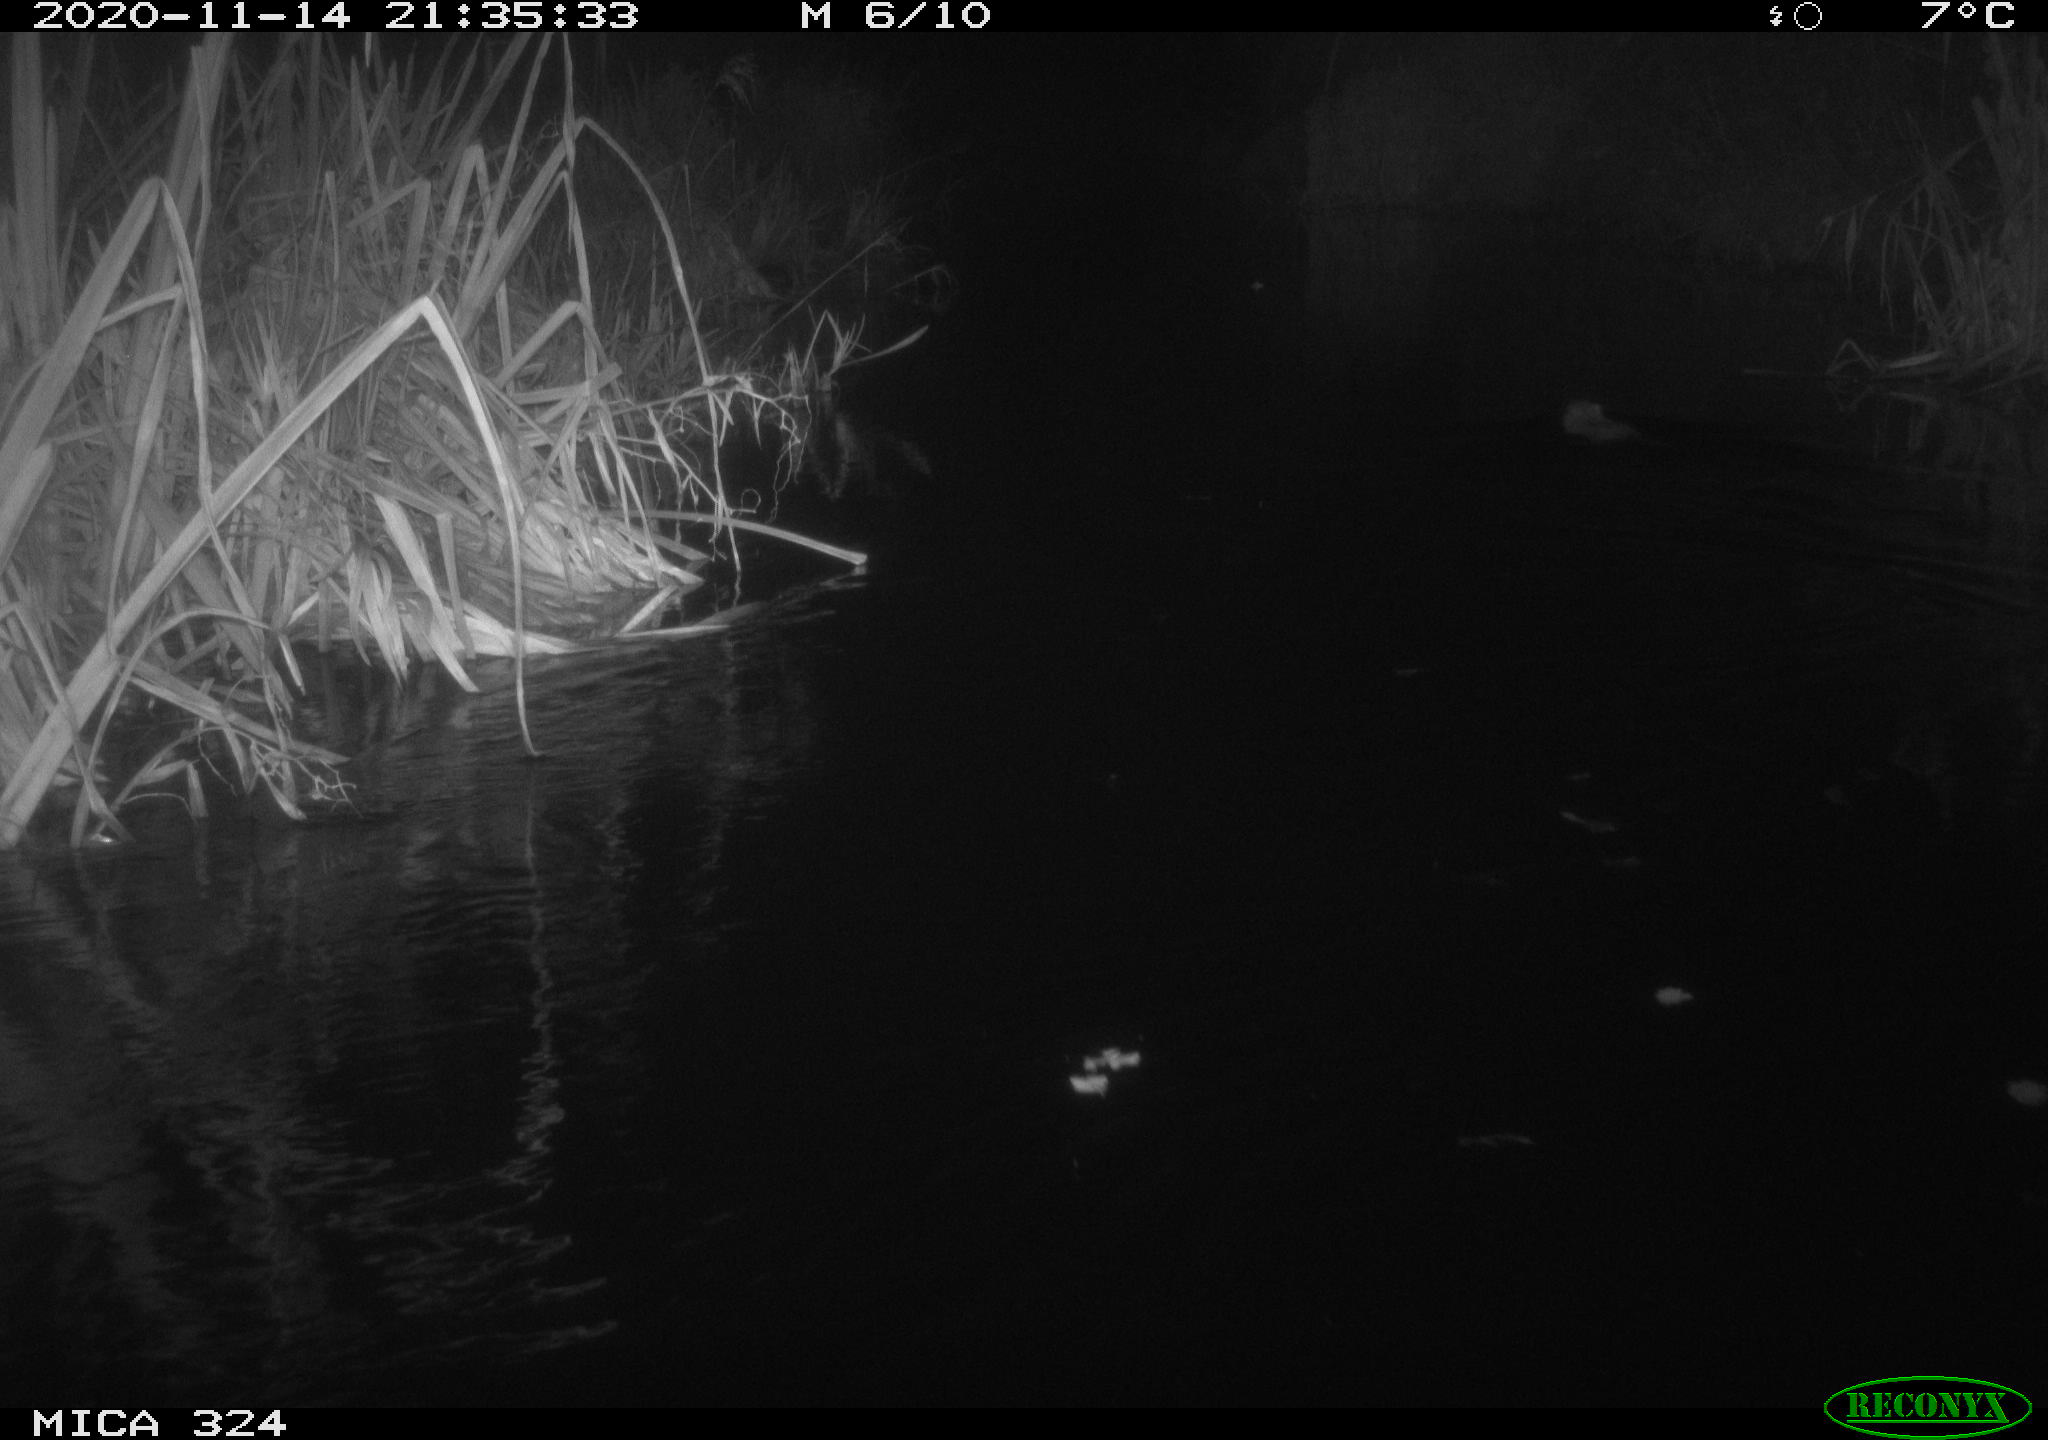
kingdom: Animalia
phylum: Chordata
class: Mammalia
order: Rodentia
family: Myocastoridae
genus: Myocastor
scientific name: Myocastor coypus
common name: Coypu
